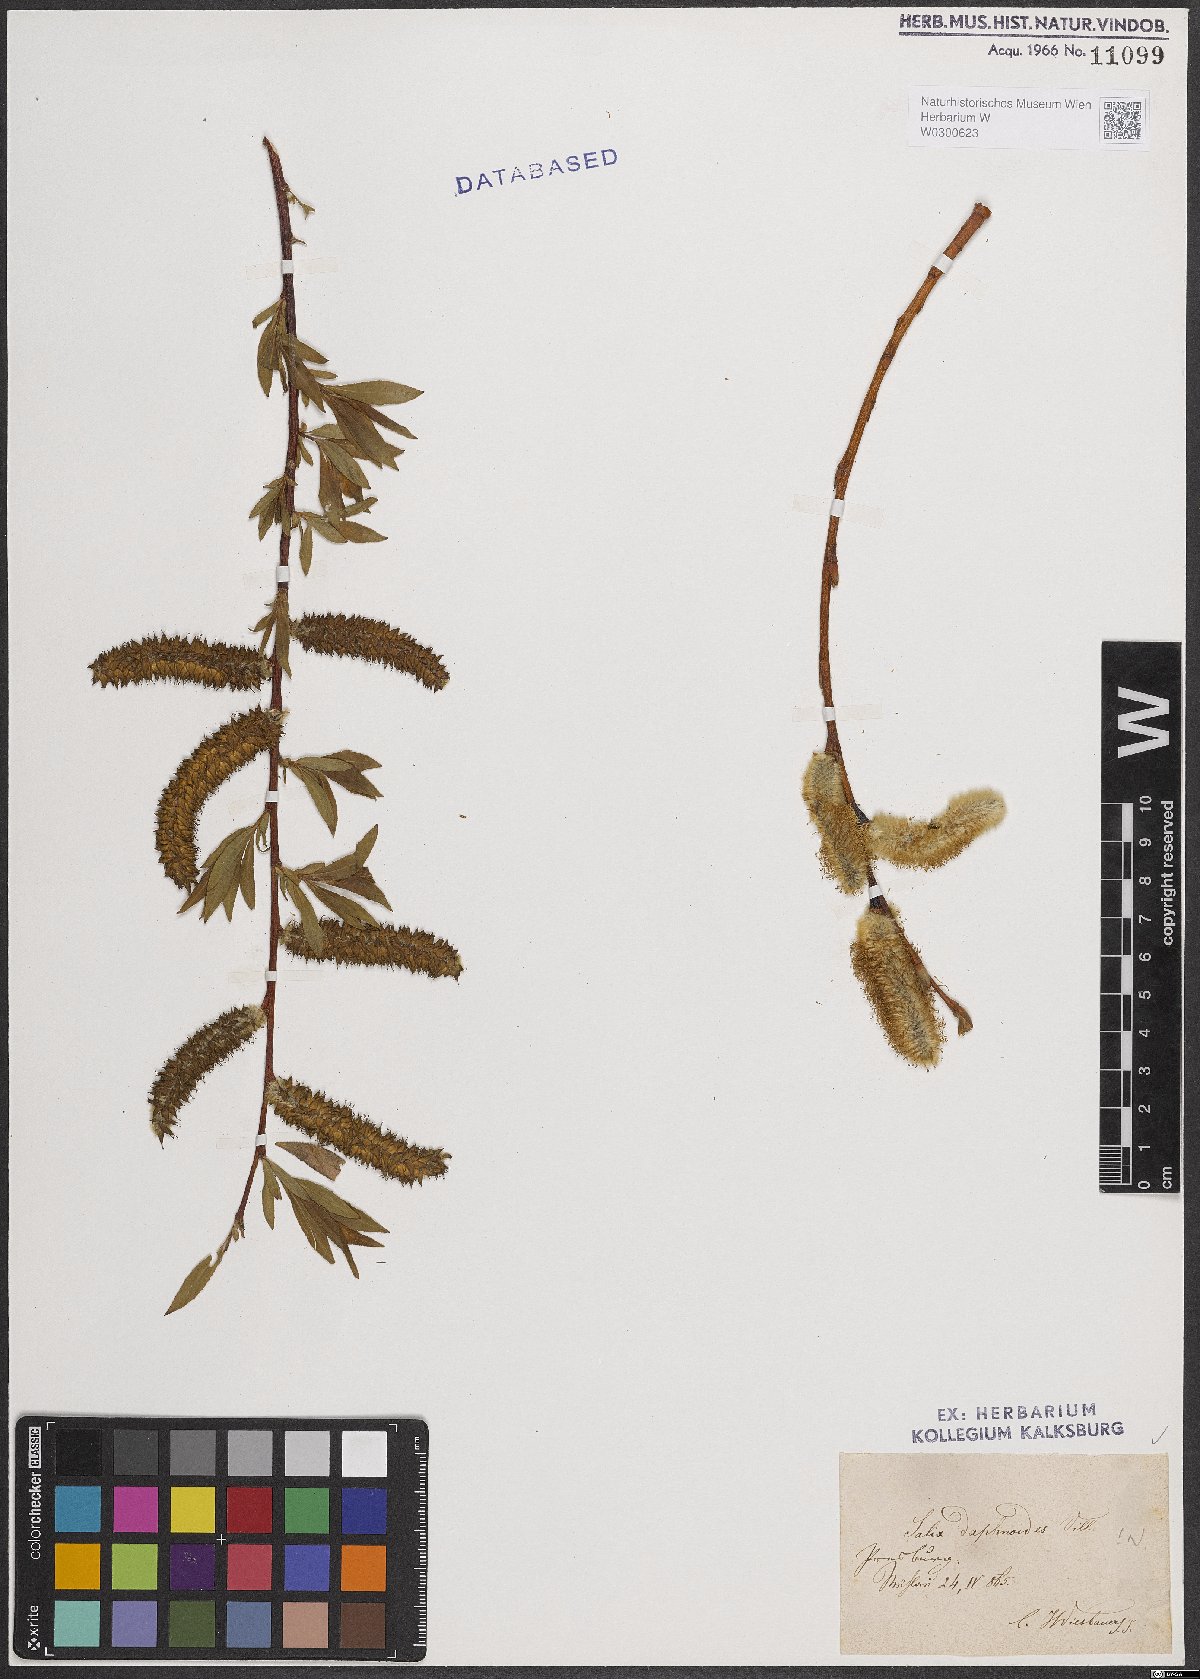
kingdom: Plantae
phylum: Tracheophyta
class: Magnoliopsida
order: Malpighiales
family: Salicaceae
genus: Salix
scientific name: Salix daphnoides
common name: European violet-willow
